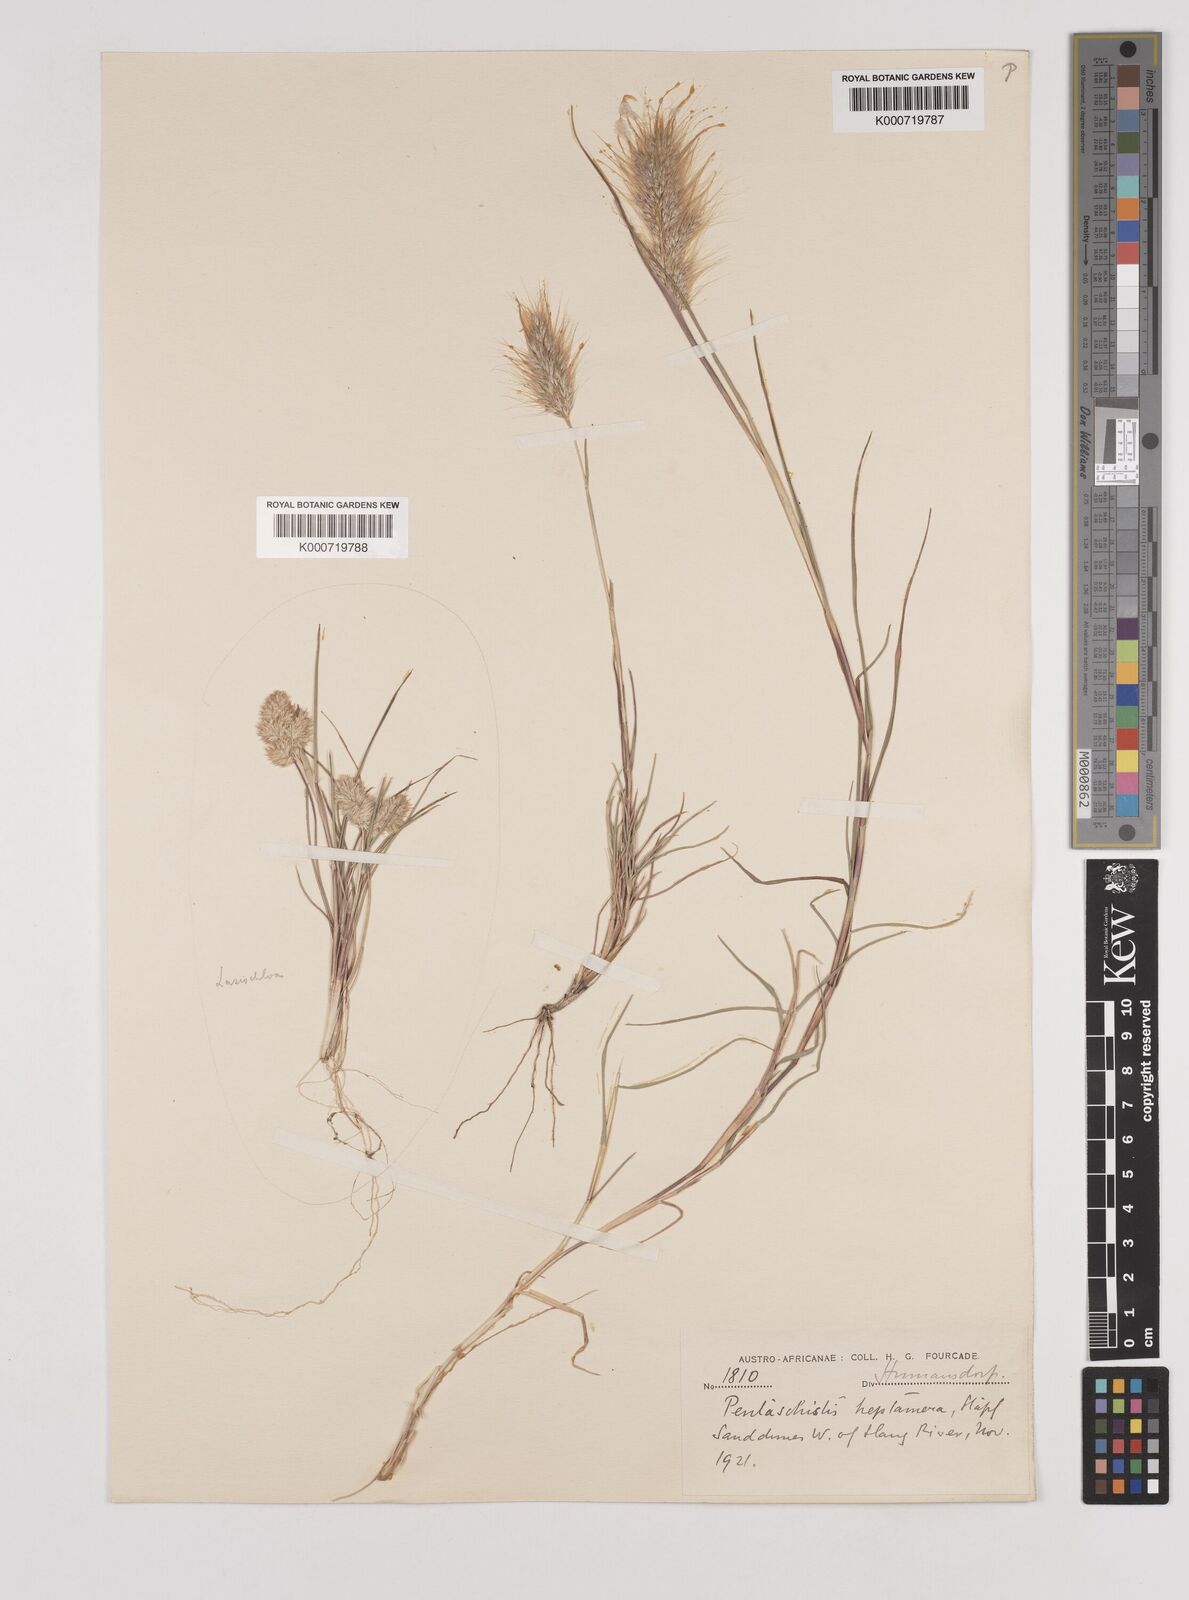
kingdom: Plantae
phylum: Tracheophyta
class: Liliopsida
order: Poales
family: Poaceae
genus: Pentameris
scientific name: Pentameris heptamera
